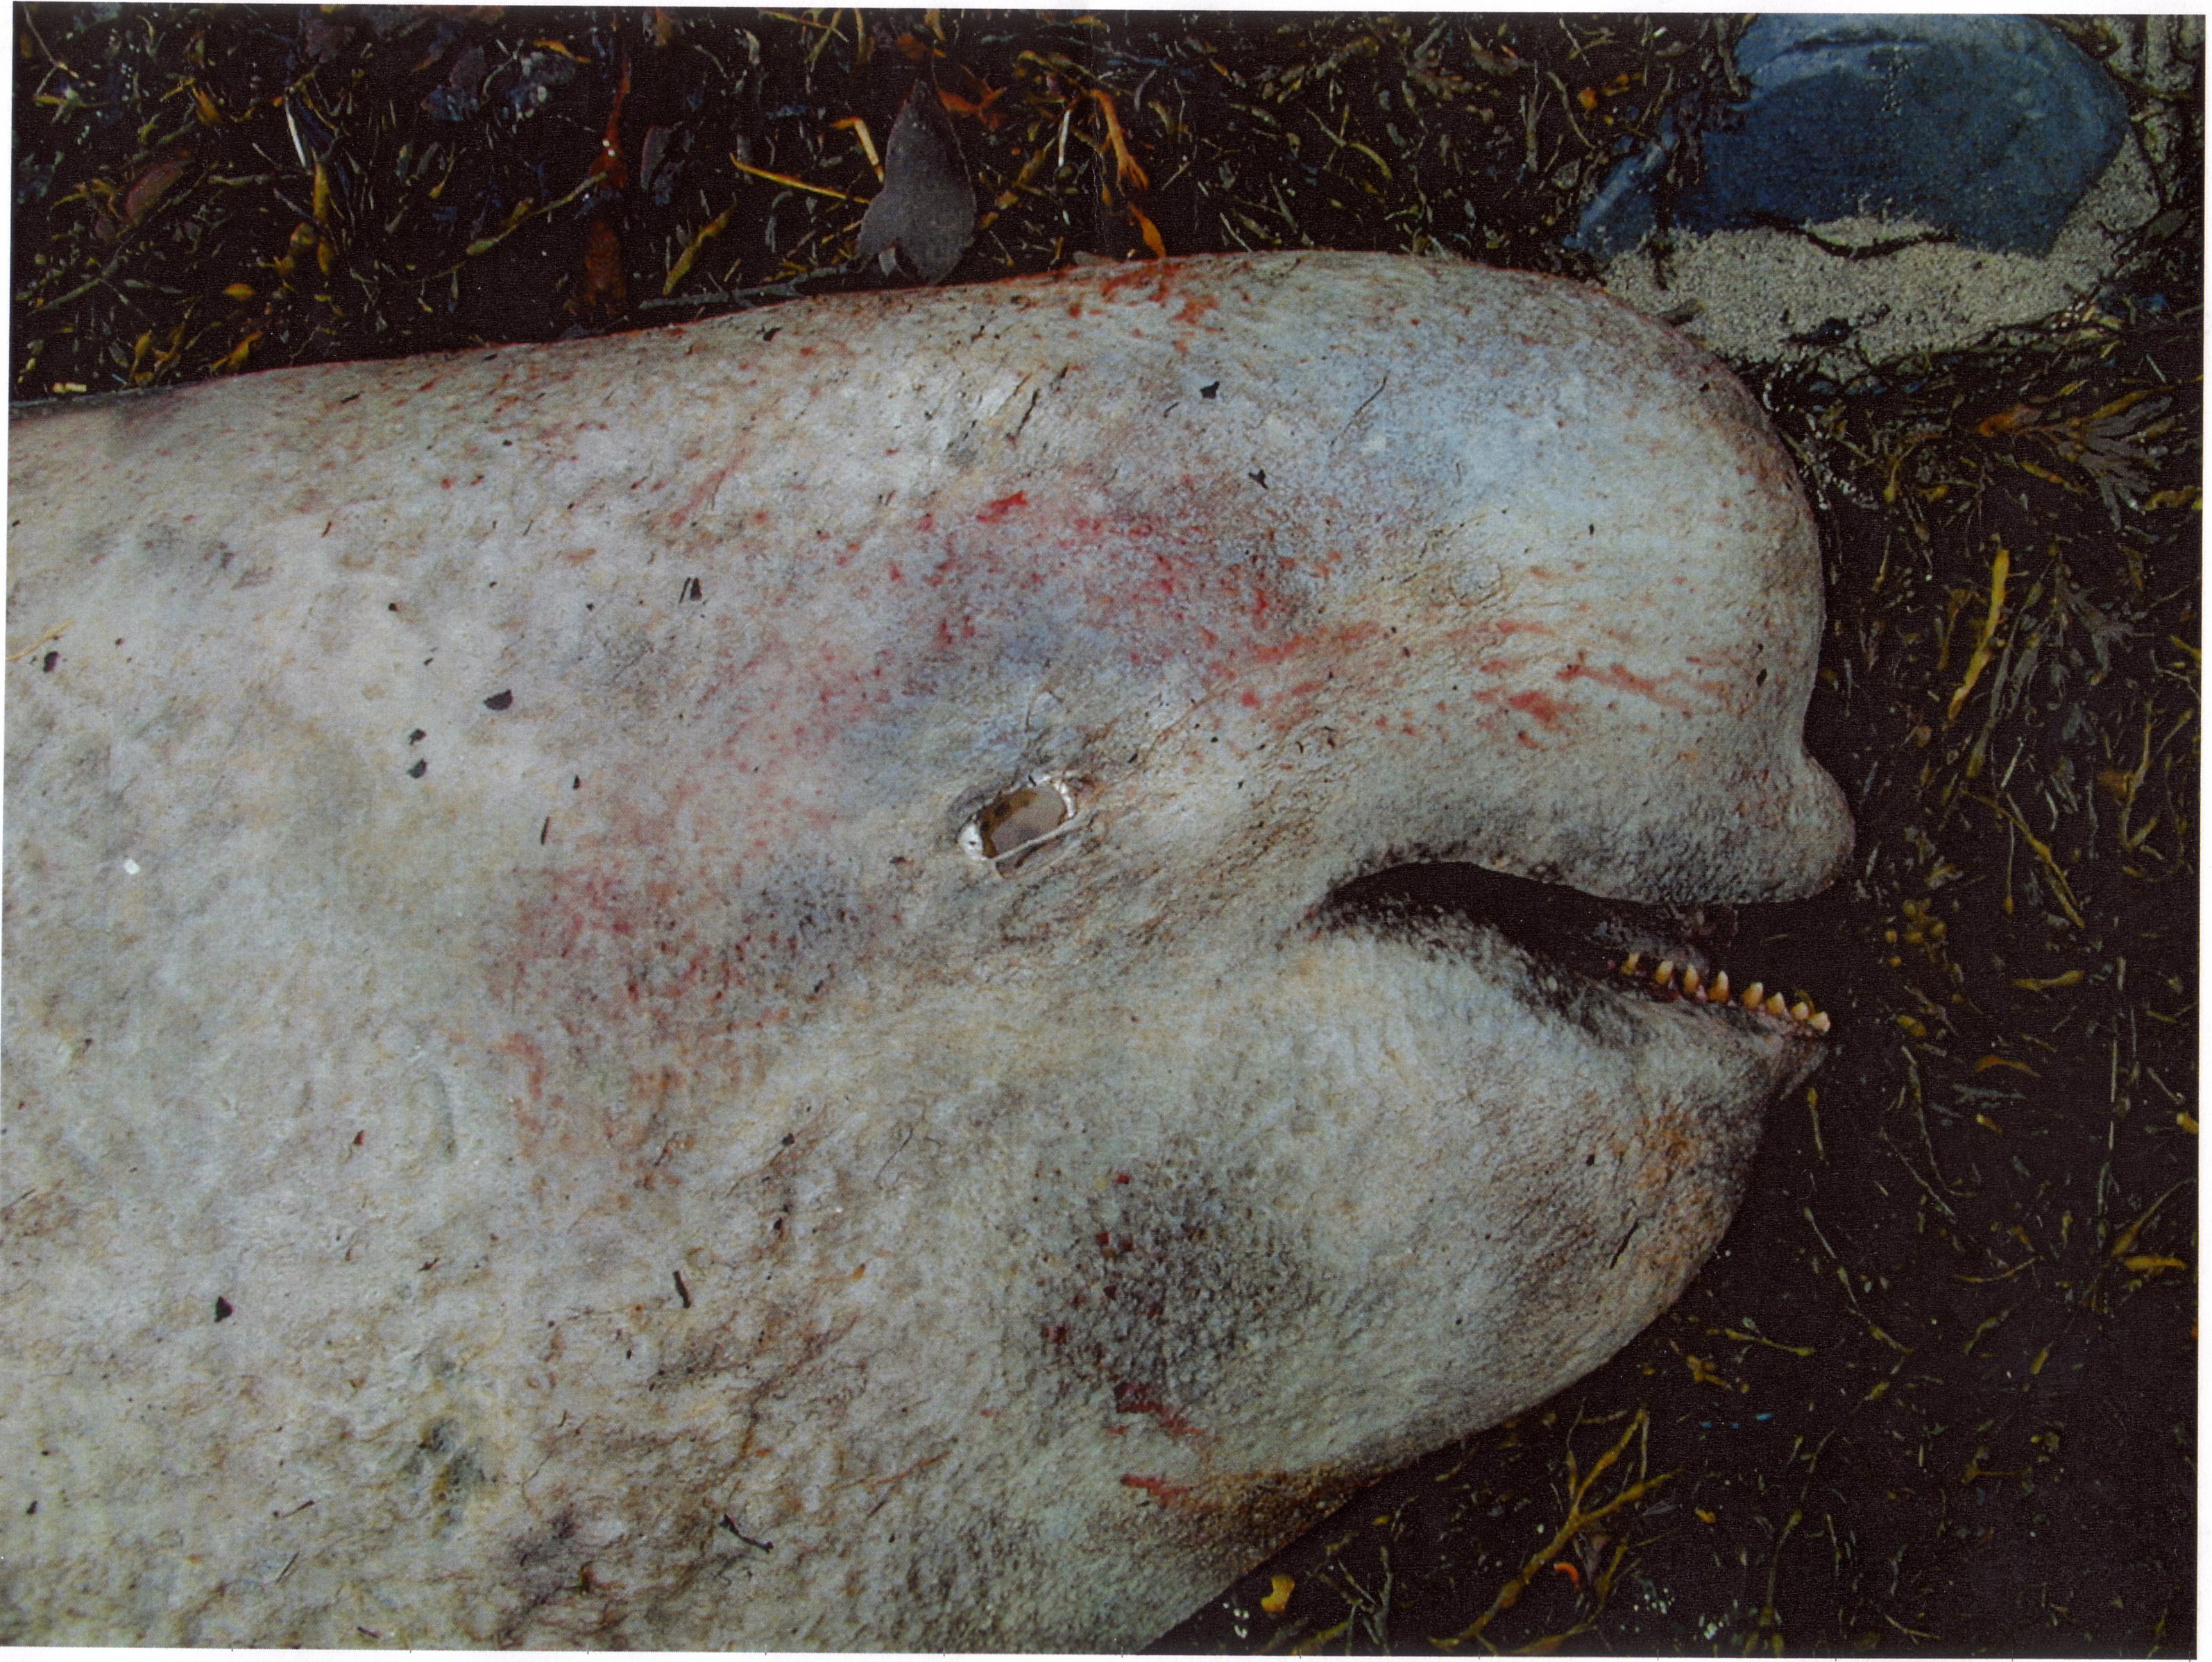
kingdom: Animalia
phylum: Chordata
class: Mammalia
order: Cetacea
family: Monodontidae
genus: Delphinapterus
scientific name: Delphinapterus leucas
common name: Beluga
